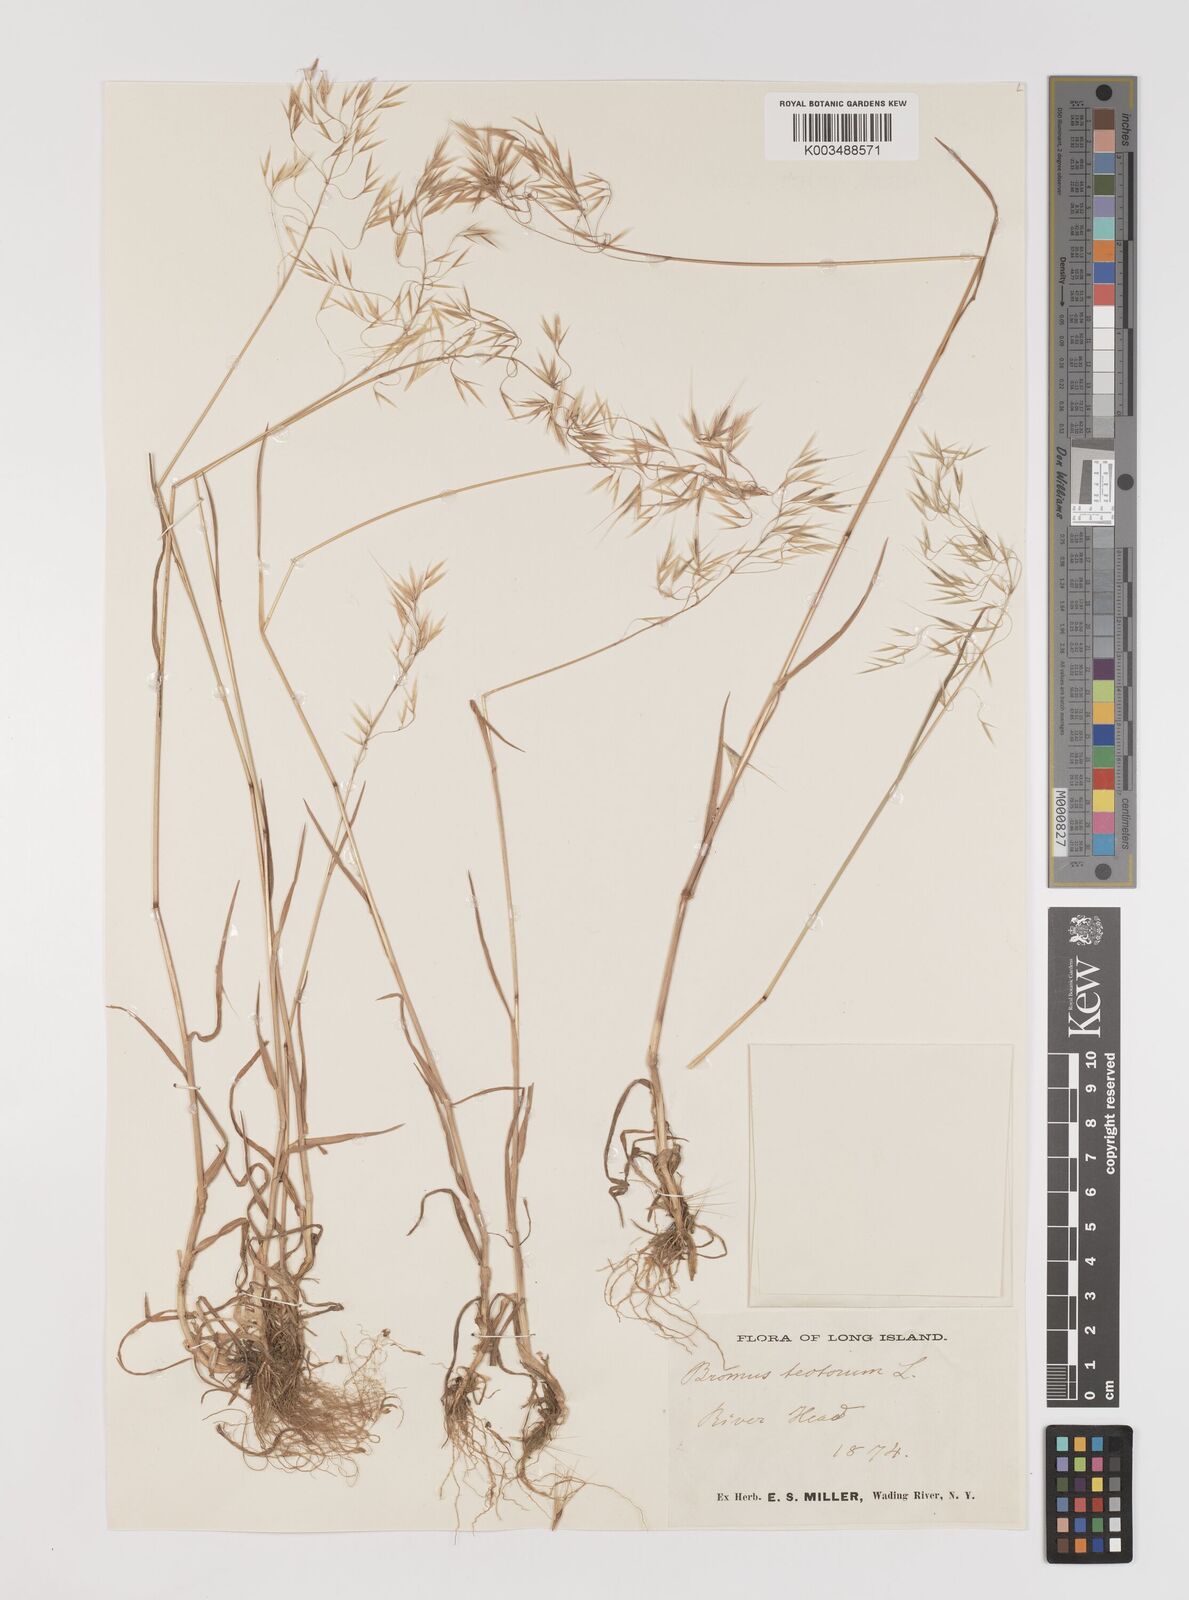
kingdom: Plantae
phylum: Tracheophyta
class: Liliopsida
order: Poales
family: Poaceae
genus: Bromus
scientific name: Bromus tectorum
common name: Cheatgrass
